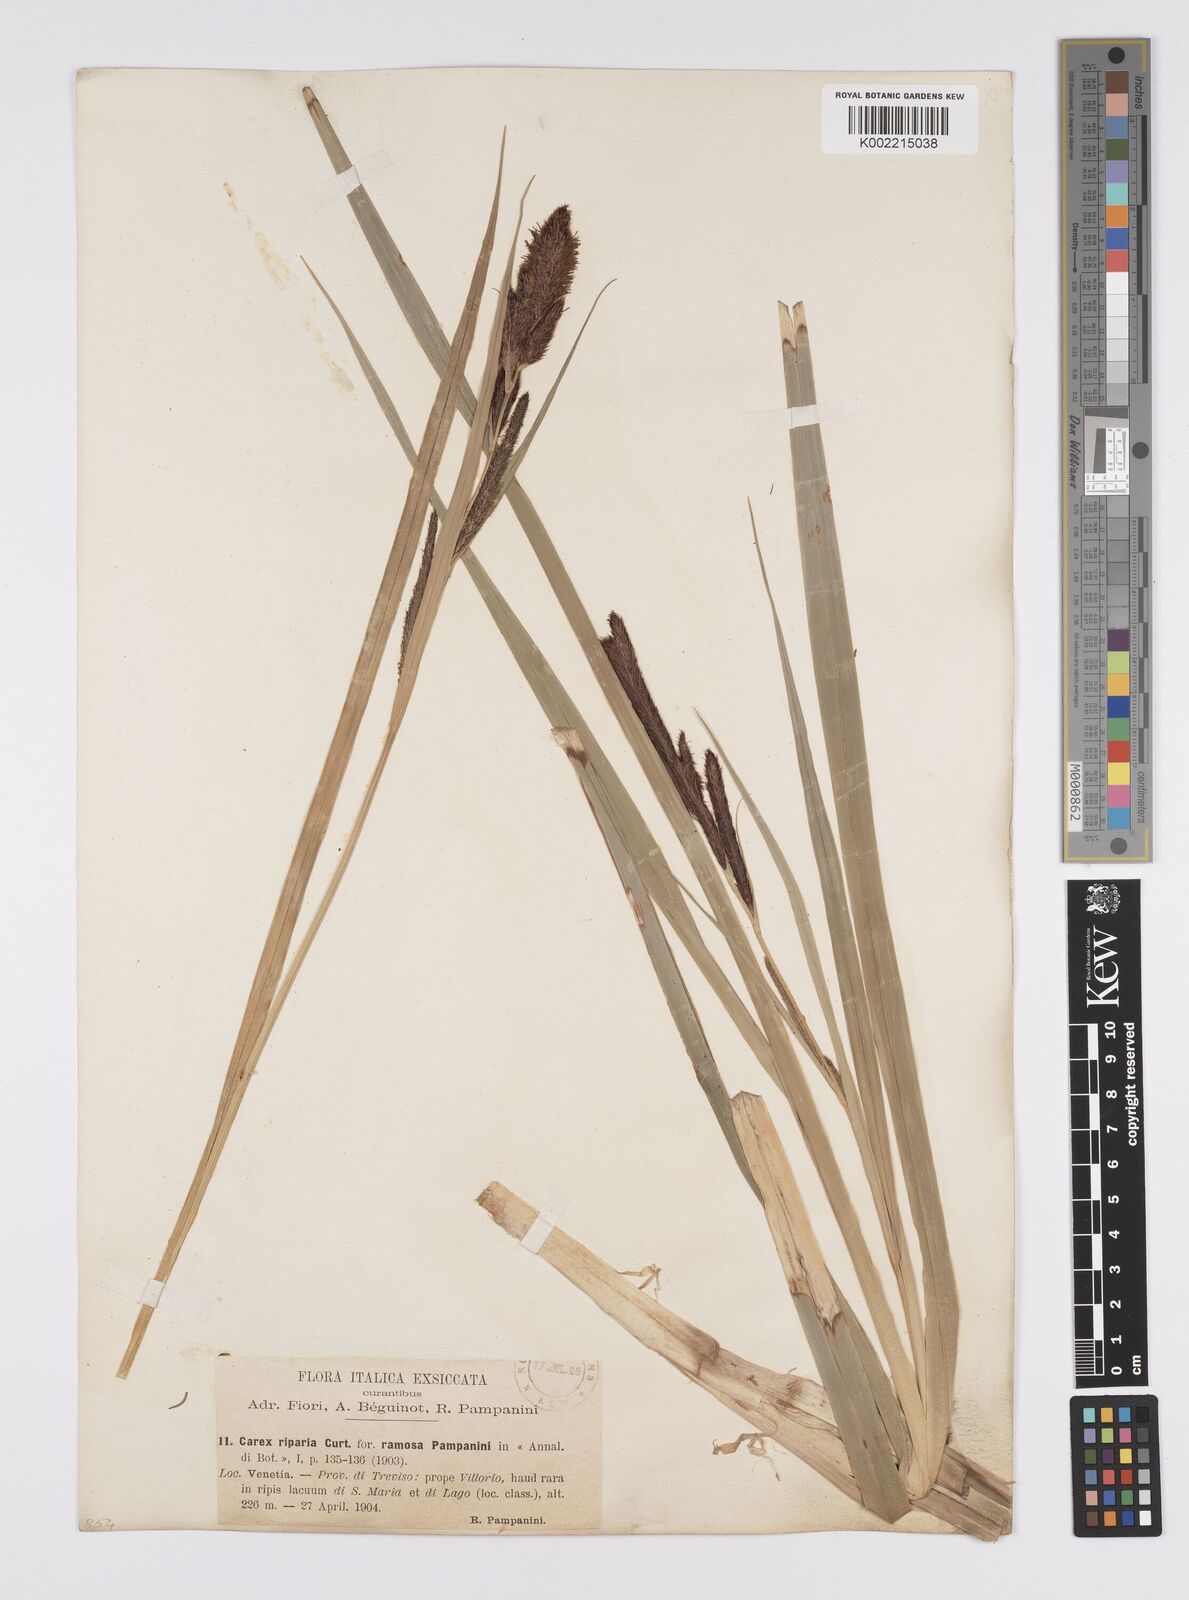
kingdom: Plantae
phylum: Tracheophyta
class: Liliopsida
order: Poales
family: Cyperaceae
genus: Carex
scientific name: Carex riparia
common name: Greater pond-sedge
